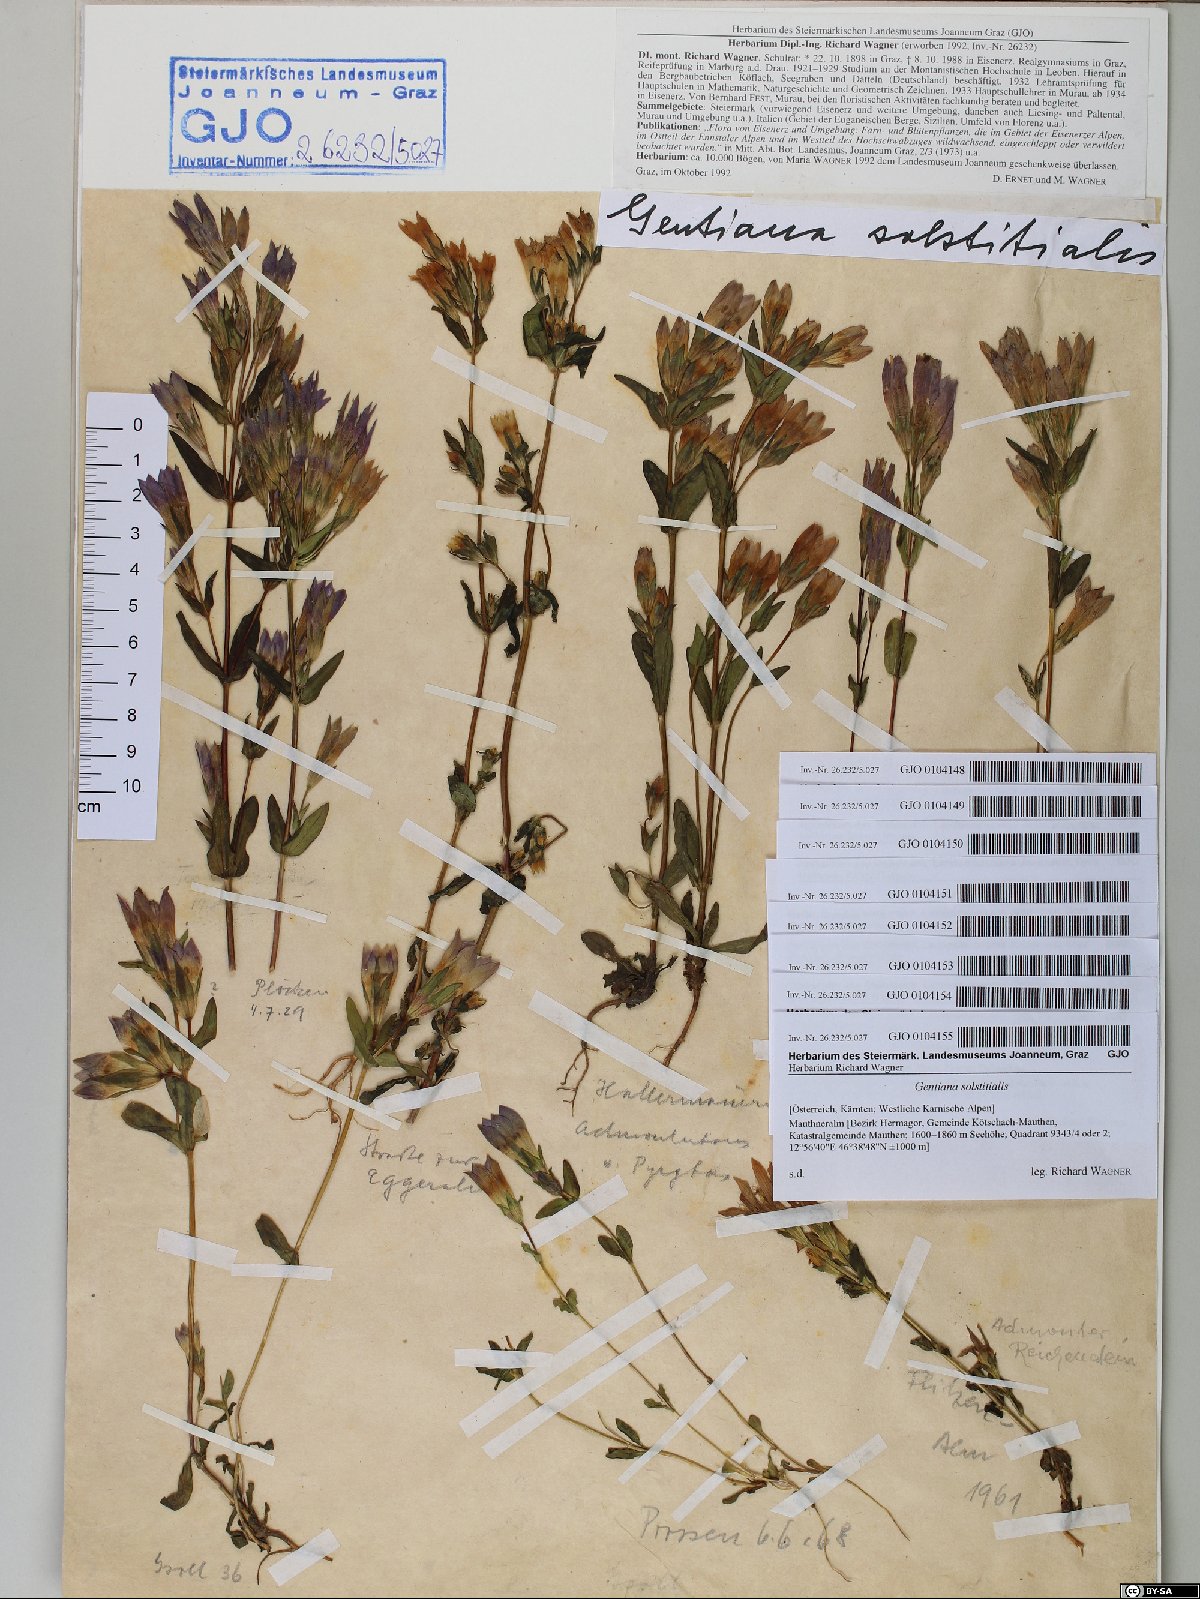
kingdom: Plantae
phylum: Tracheophyta
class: Magnoliopsida
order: Gentianales
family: Gentianaceae
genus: Gentianella
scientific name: Gentianella germanica
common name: Chiltern-gentian
